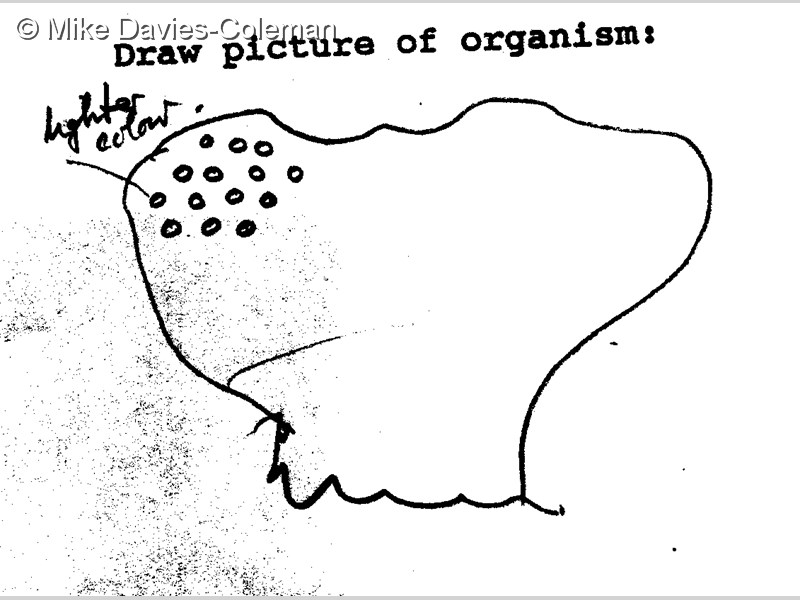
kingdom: Animalia
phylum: Chordata
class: Ascidiacea
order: Aplousobranchia
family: Pseudodistomidae
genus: Pseudodistoma
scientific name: Pseudodistoma
